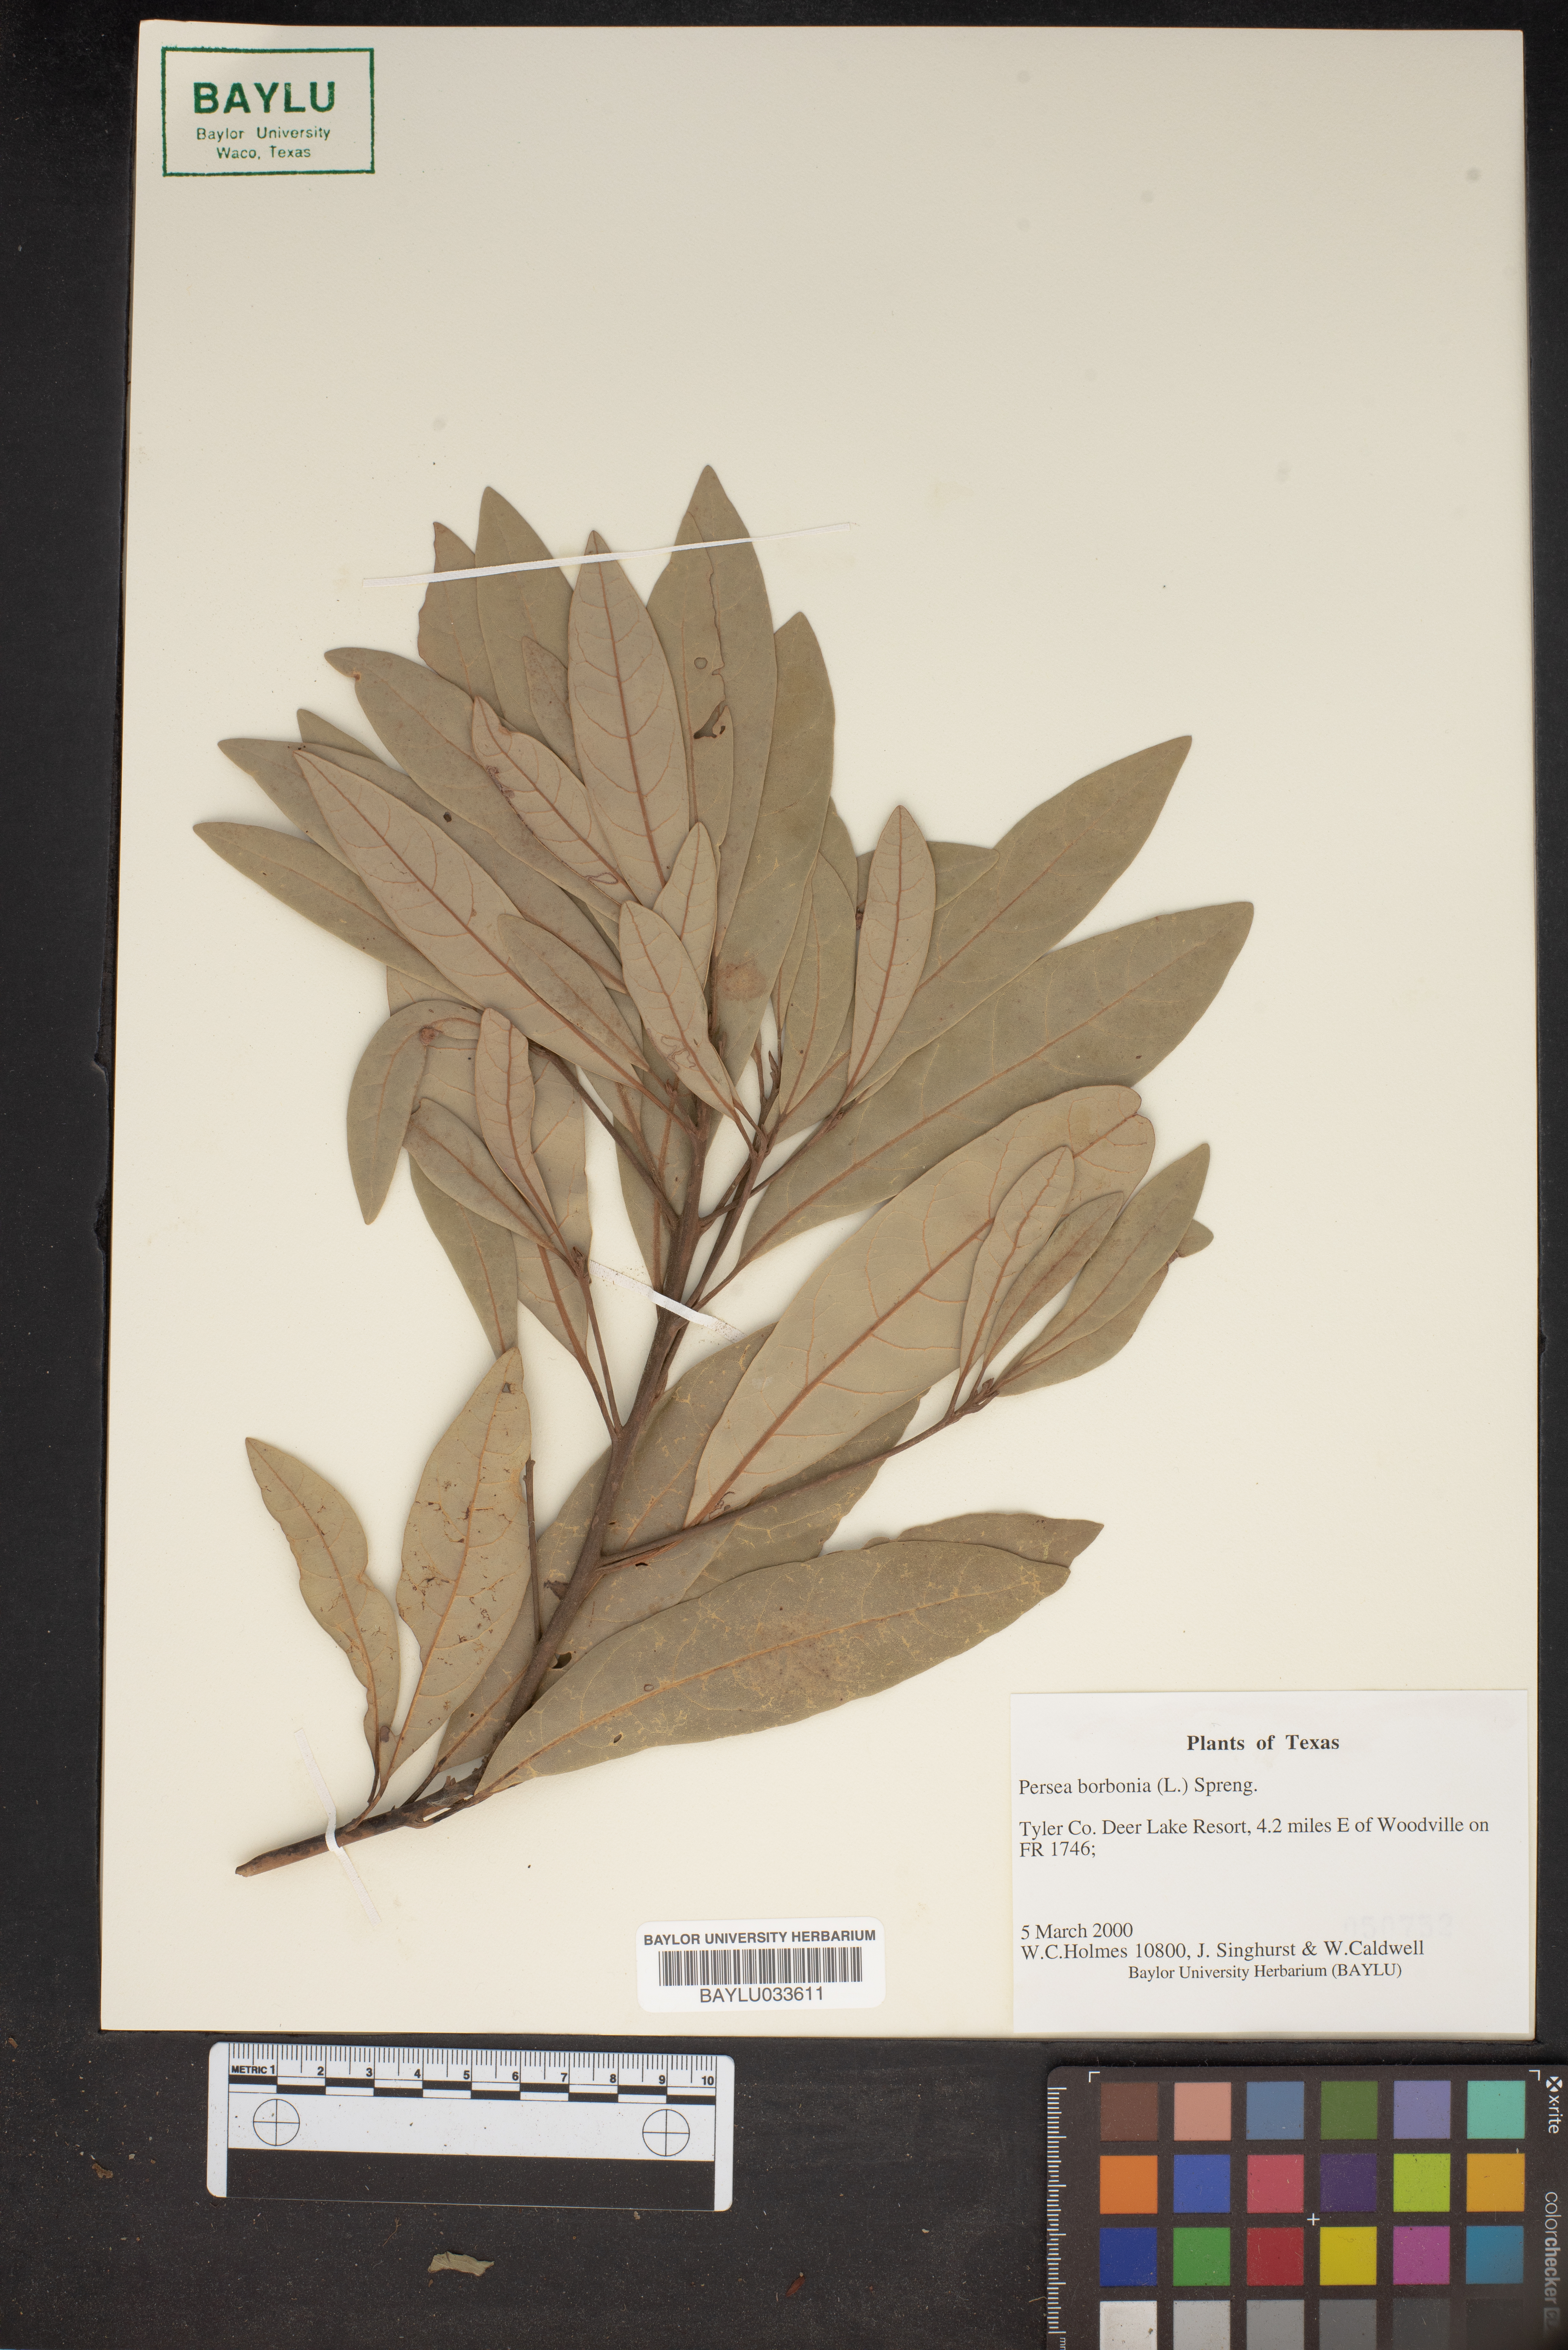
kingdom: Plantae
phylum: Tracheophyta
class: Magnoliopsida
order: Laurales
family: Lauraceae
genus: Persea
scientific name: Persea borbonia
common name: Redbay
